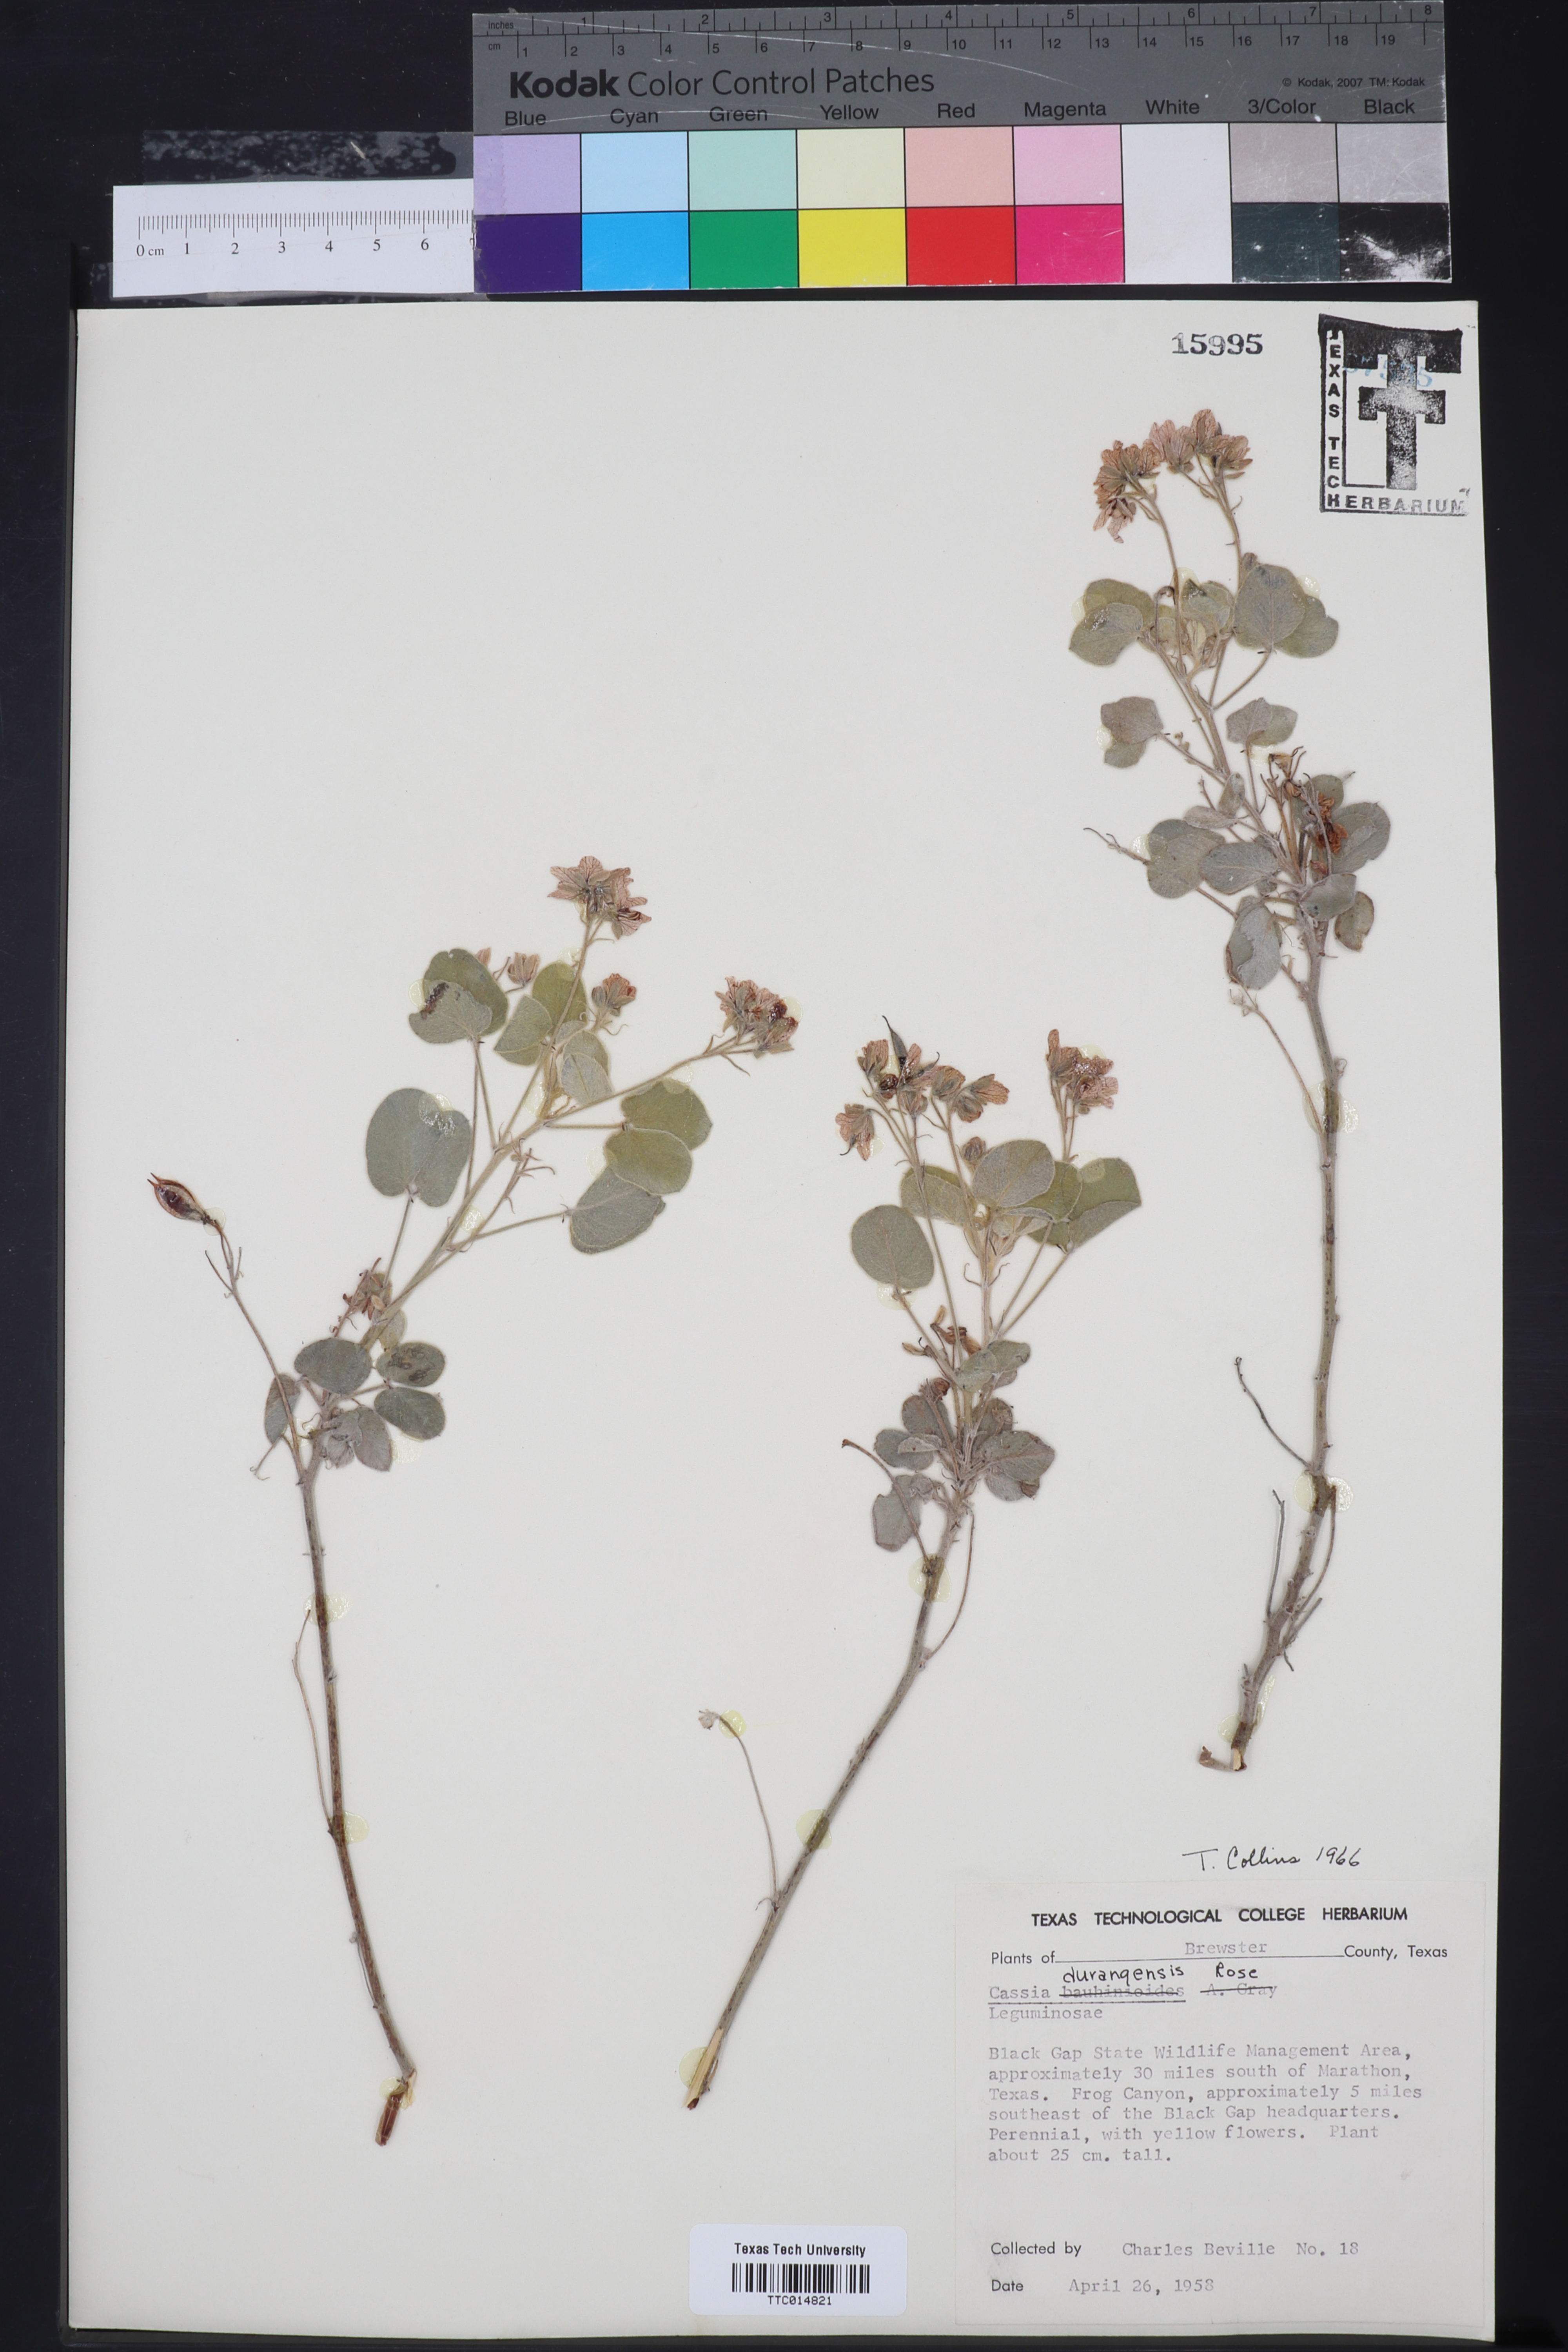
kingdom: Plantae
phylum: Tracheophyta
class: Magnoliopsida
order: Fabales
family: Fabaceae
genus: Senna
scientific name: Senna durangensis
